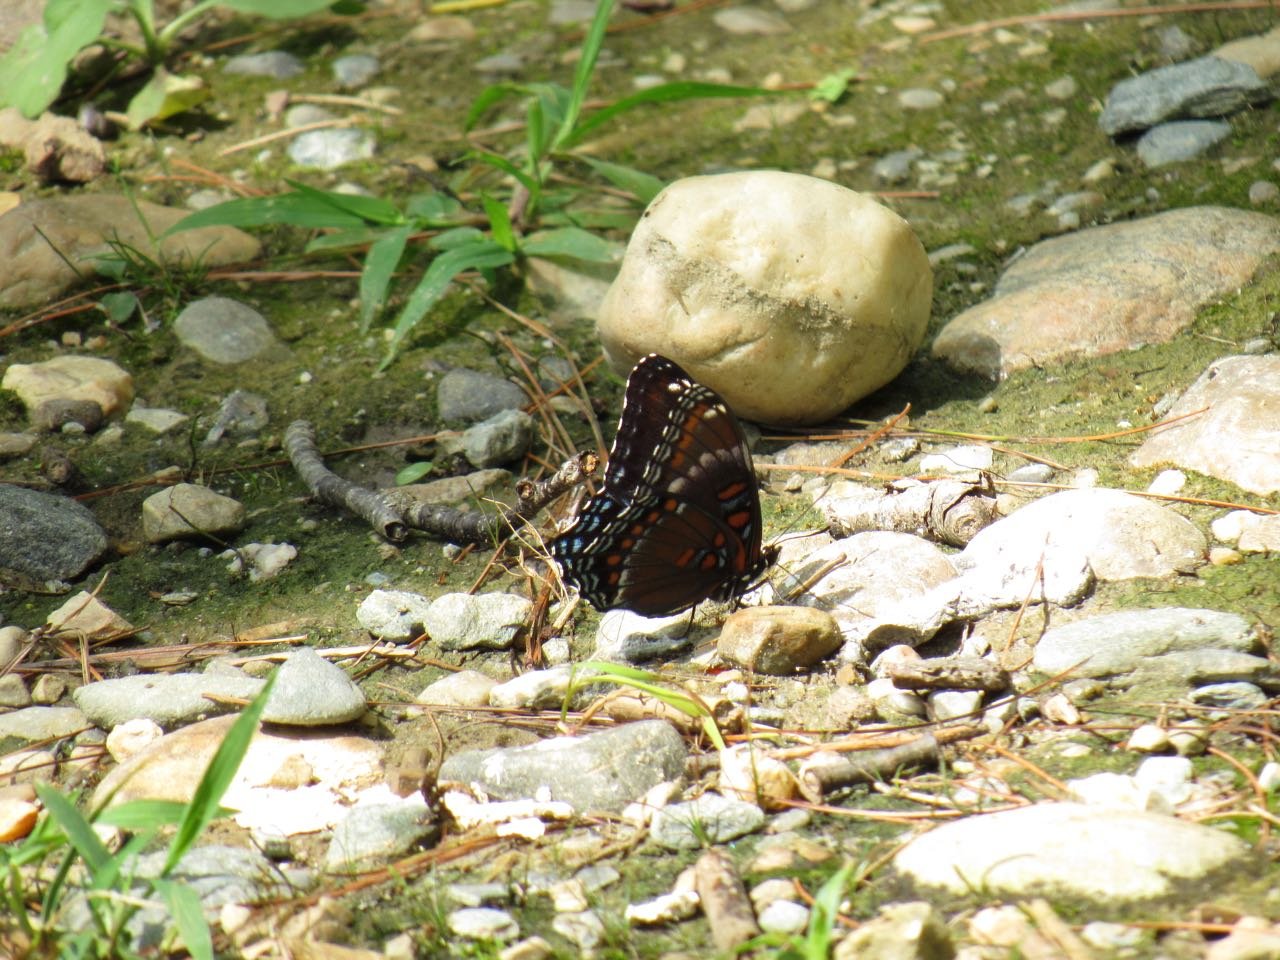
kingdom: Animalia
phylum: Arthropoda
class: Insecta
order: Lepidoptera
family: Nymphalidae
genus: Limenitis
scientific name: Limenitis
